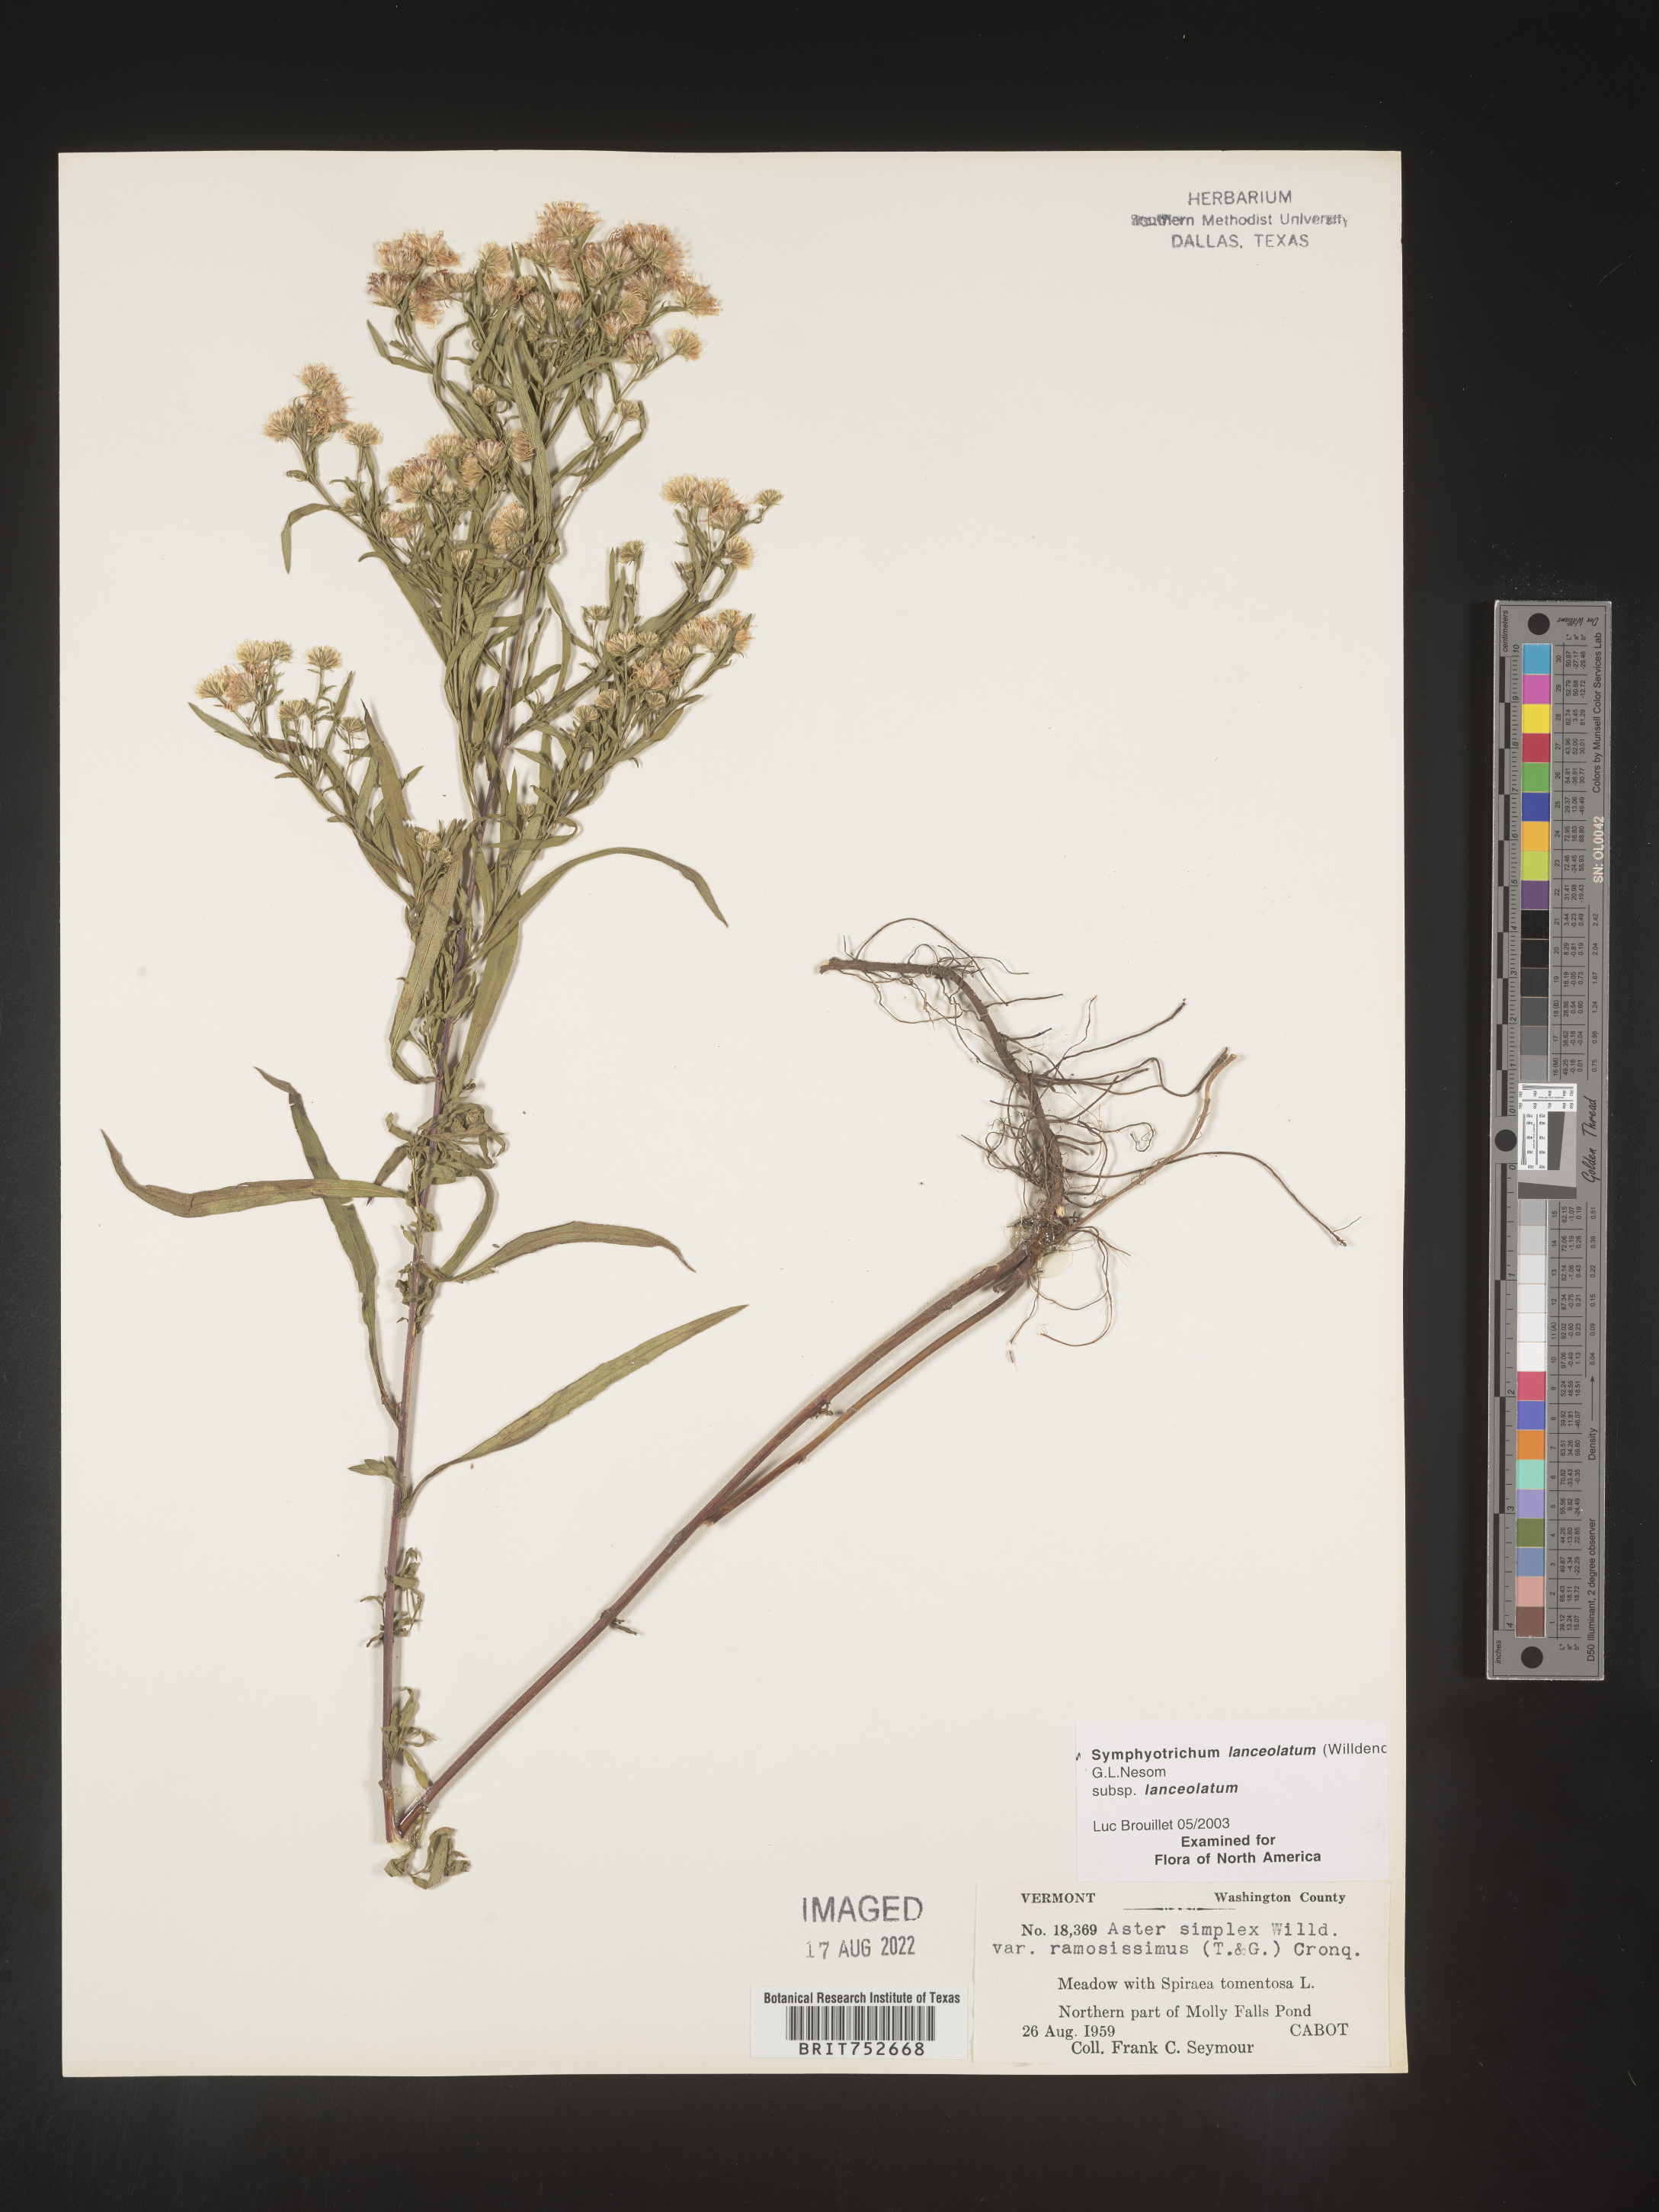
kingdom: Plantae
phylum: Tracheophyta
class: Magnoliopsida
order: Asterales
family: Asteraceae
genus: Symphyotrichum
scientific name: Symphyotrichum lanceolatum
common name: Panicled aster
